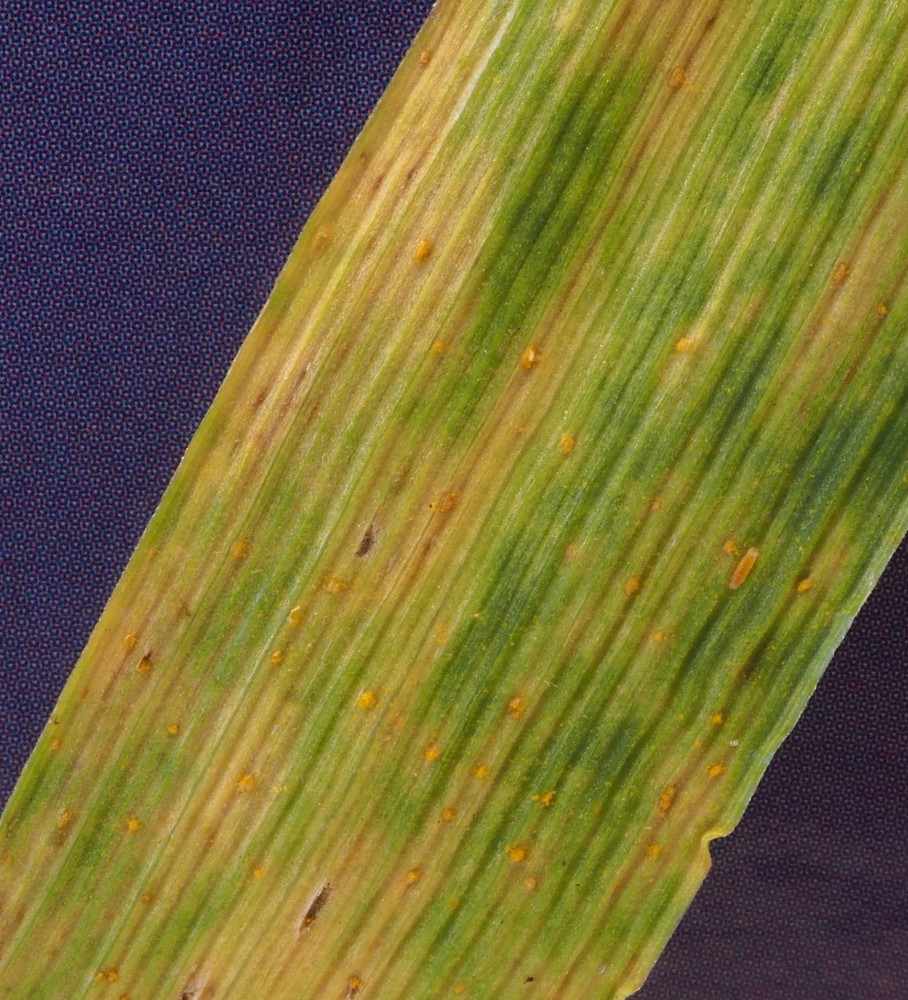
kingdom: Fungi
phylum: Basidiomycota
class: Pucciniomycetes
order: Pucciniales
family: Pucciniaceae
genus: Puccinia
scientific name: Puccinia brachypodii
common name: Rust fungus
